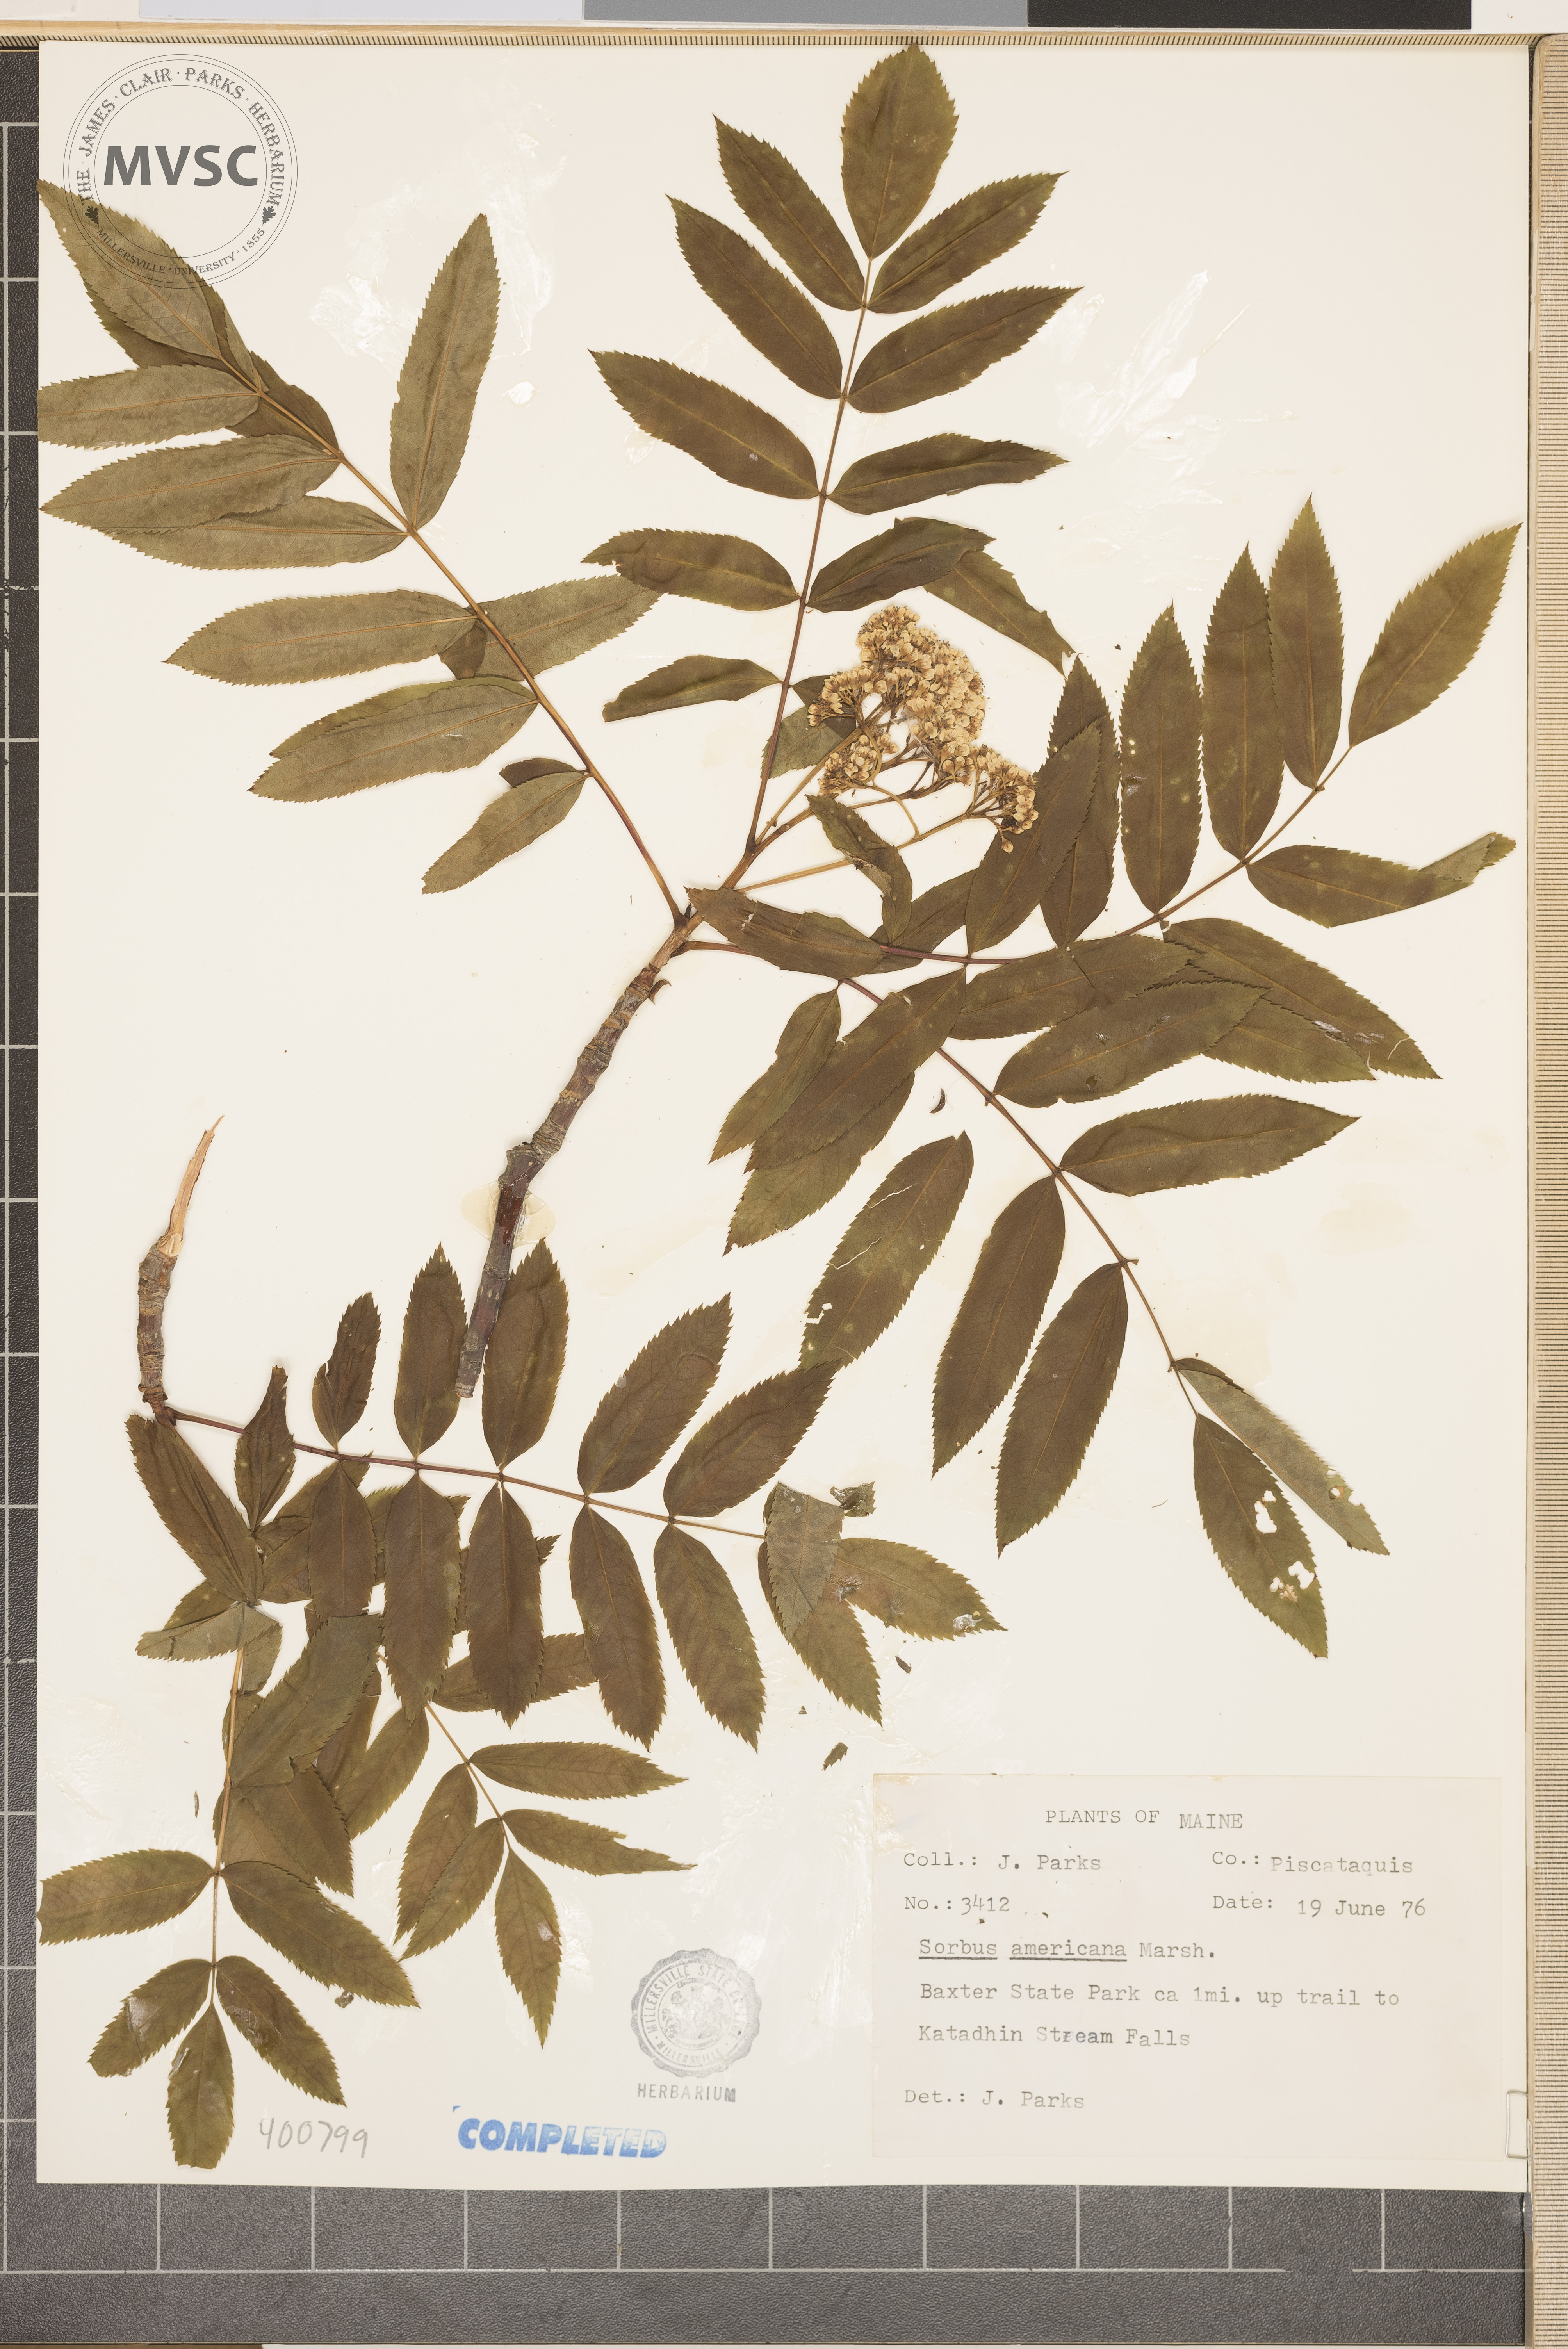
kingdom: Plantae
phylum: Tracheophyta
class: Magnoliopsida
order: Rosales
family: Rosaceae
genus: Sorbus
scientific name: Sorbus americana
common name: mountain-ash
